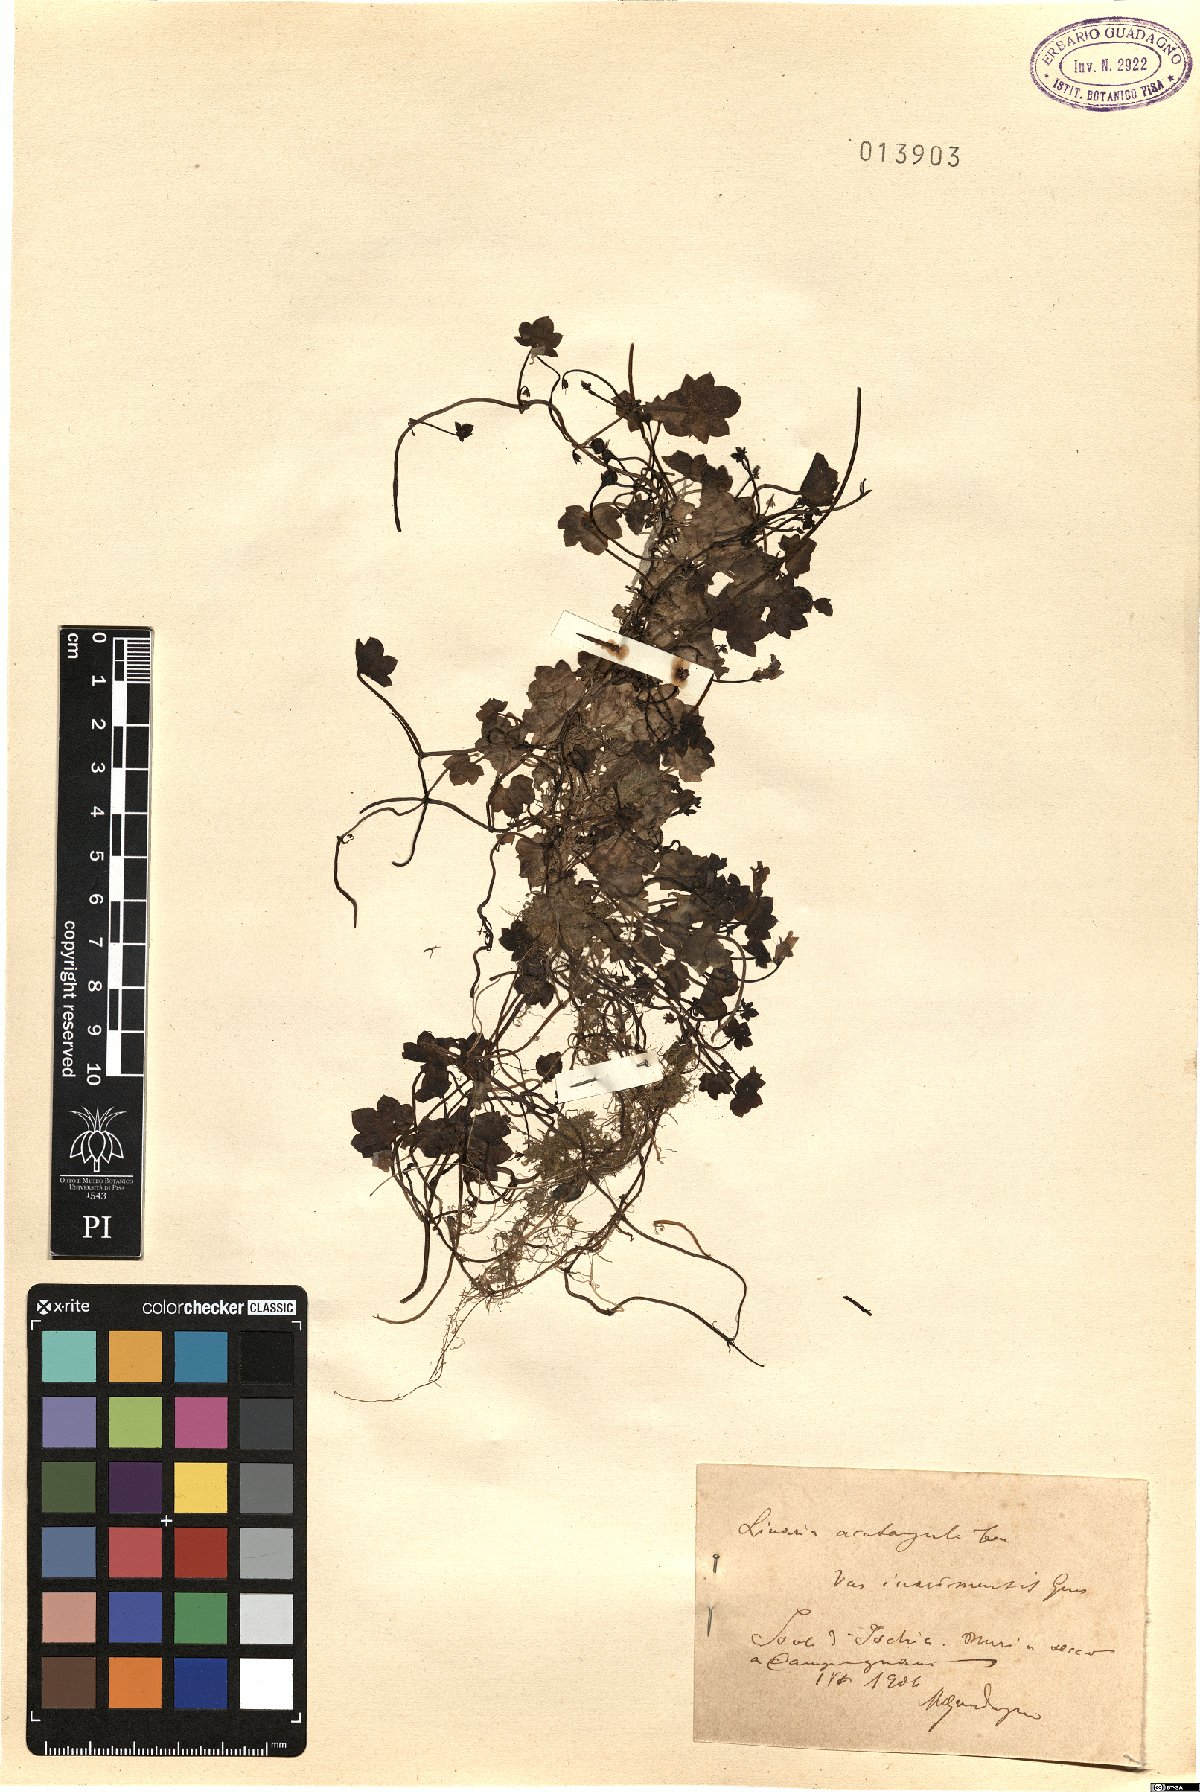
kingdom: Plantae
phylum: Tracheophyta
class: Magnoliopsida
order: Lamiales
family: Plantaginaceae
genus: Cymbalaria
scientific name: Cymbalaria muralis
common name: Ivy-leaved toadflax
